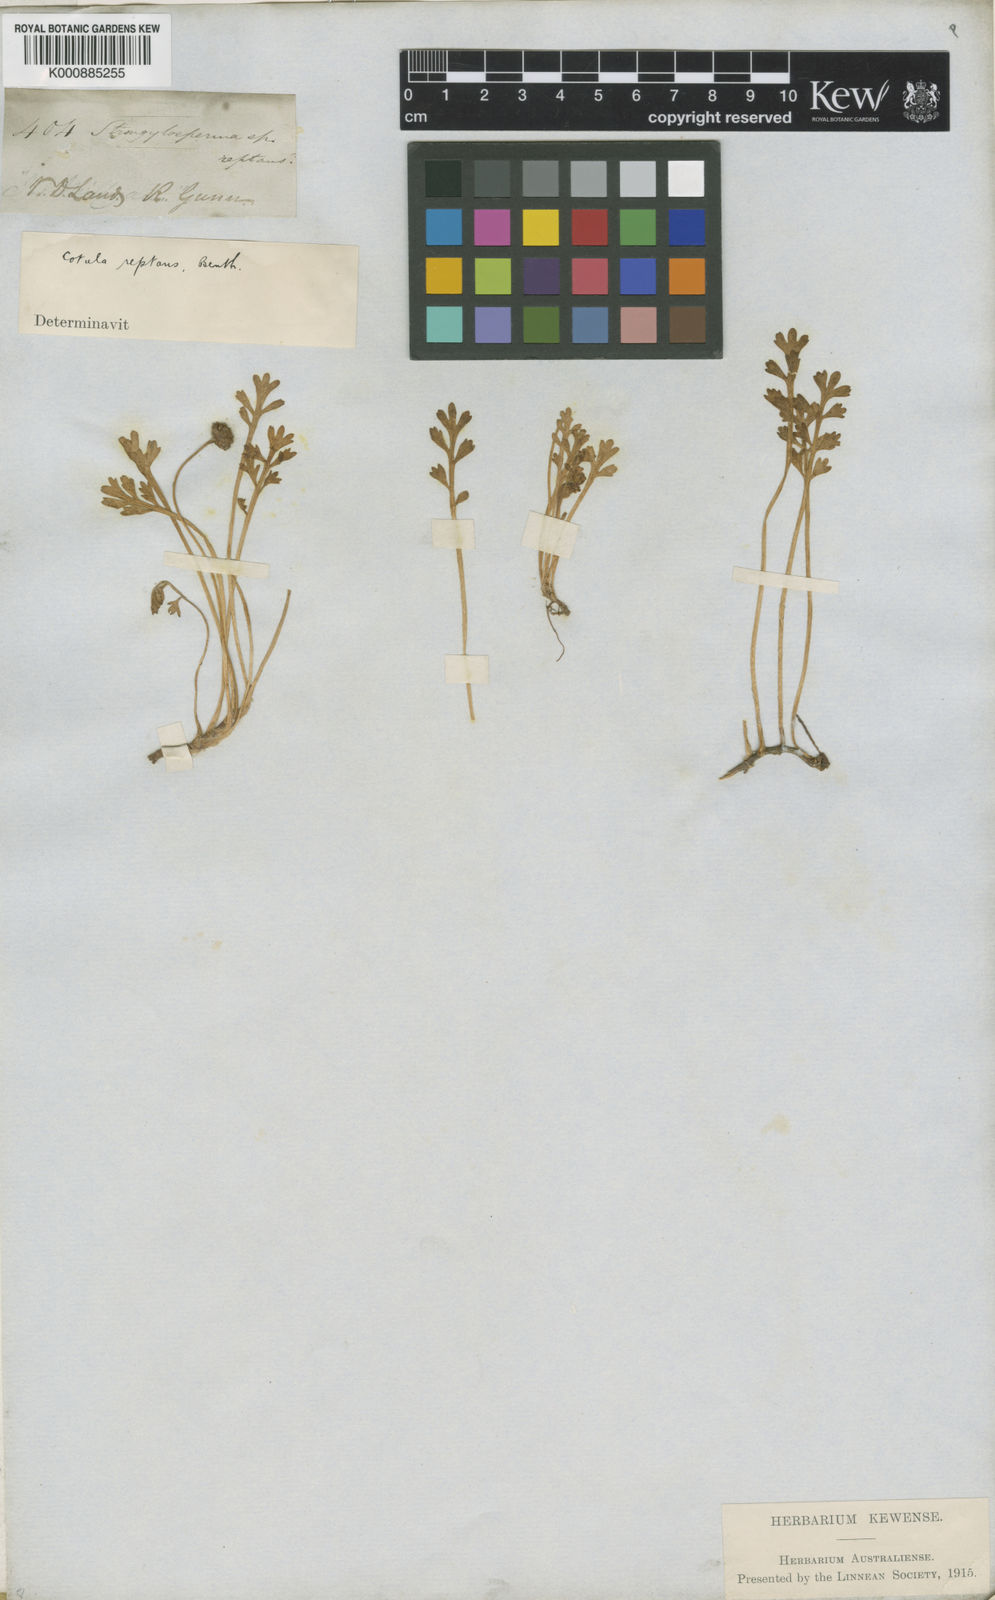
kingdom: Plantae
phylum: Tracheophyta
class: Magnoliopsida
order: Asterales
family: Asteraceae
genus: Leptinella
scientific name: Leptinella longipes
